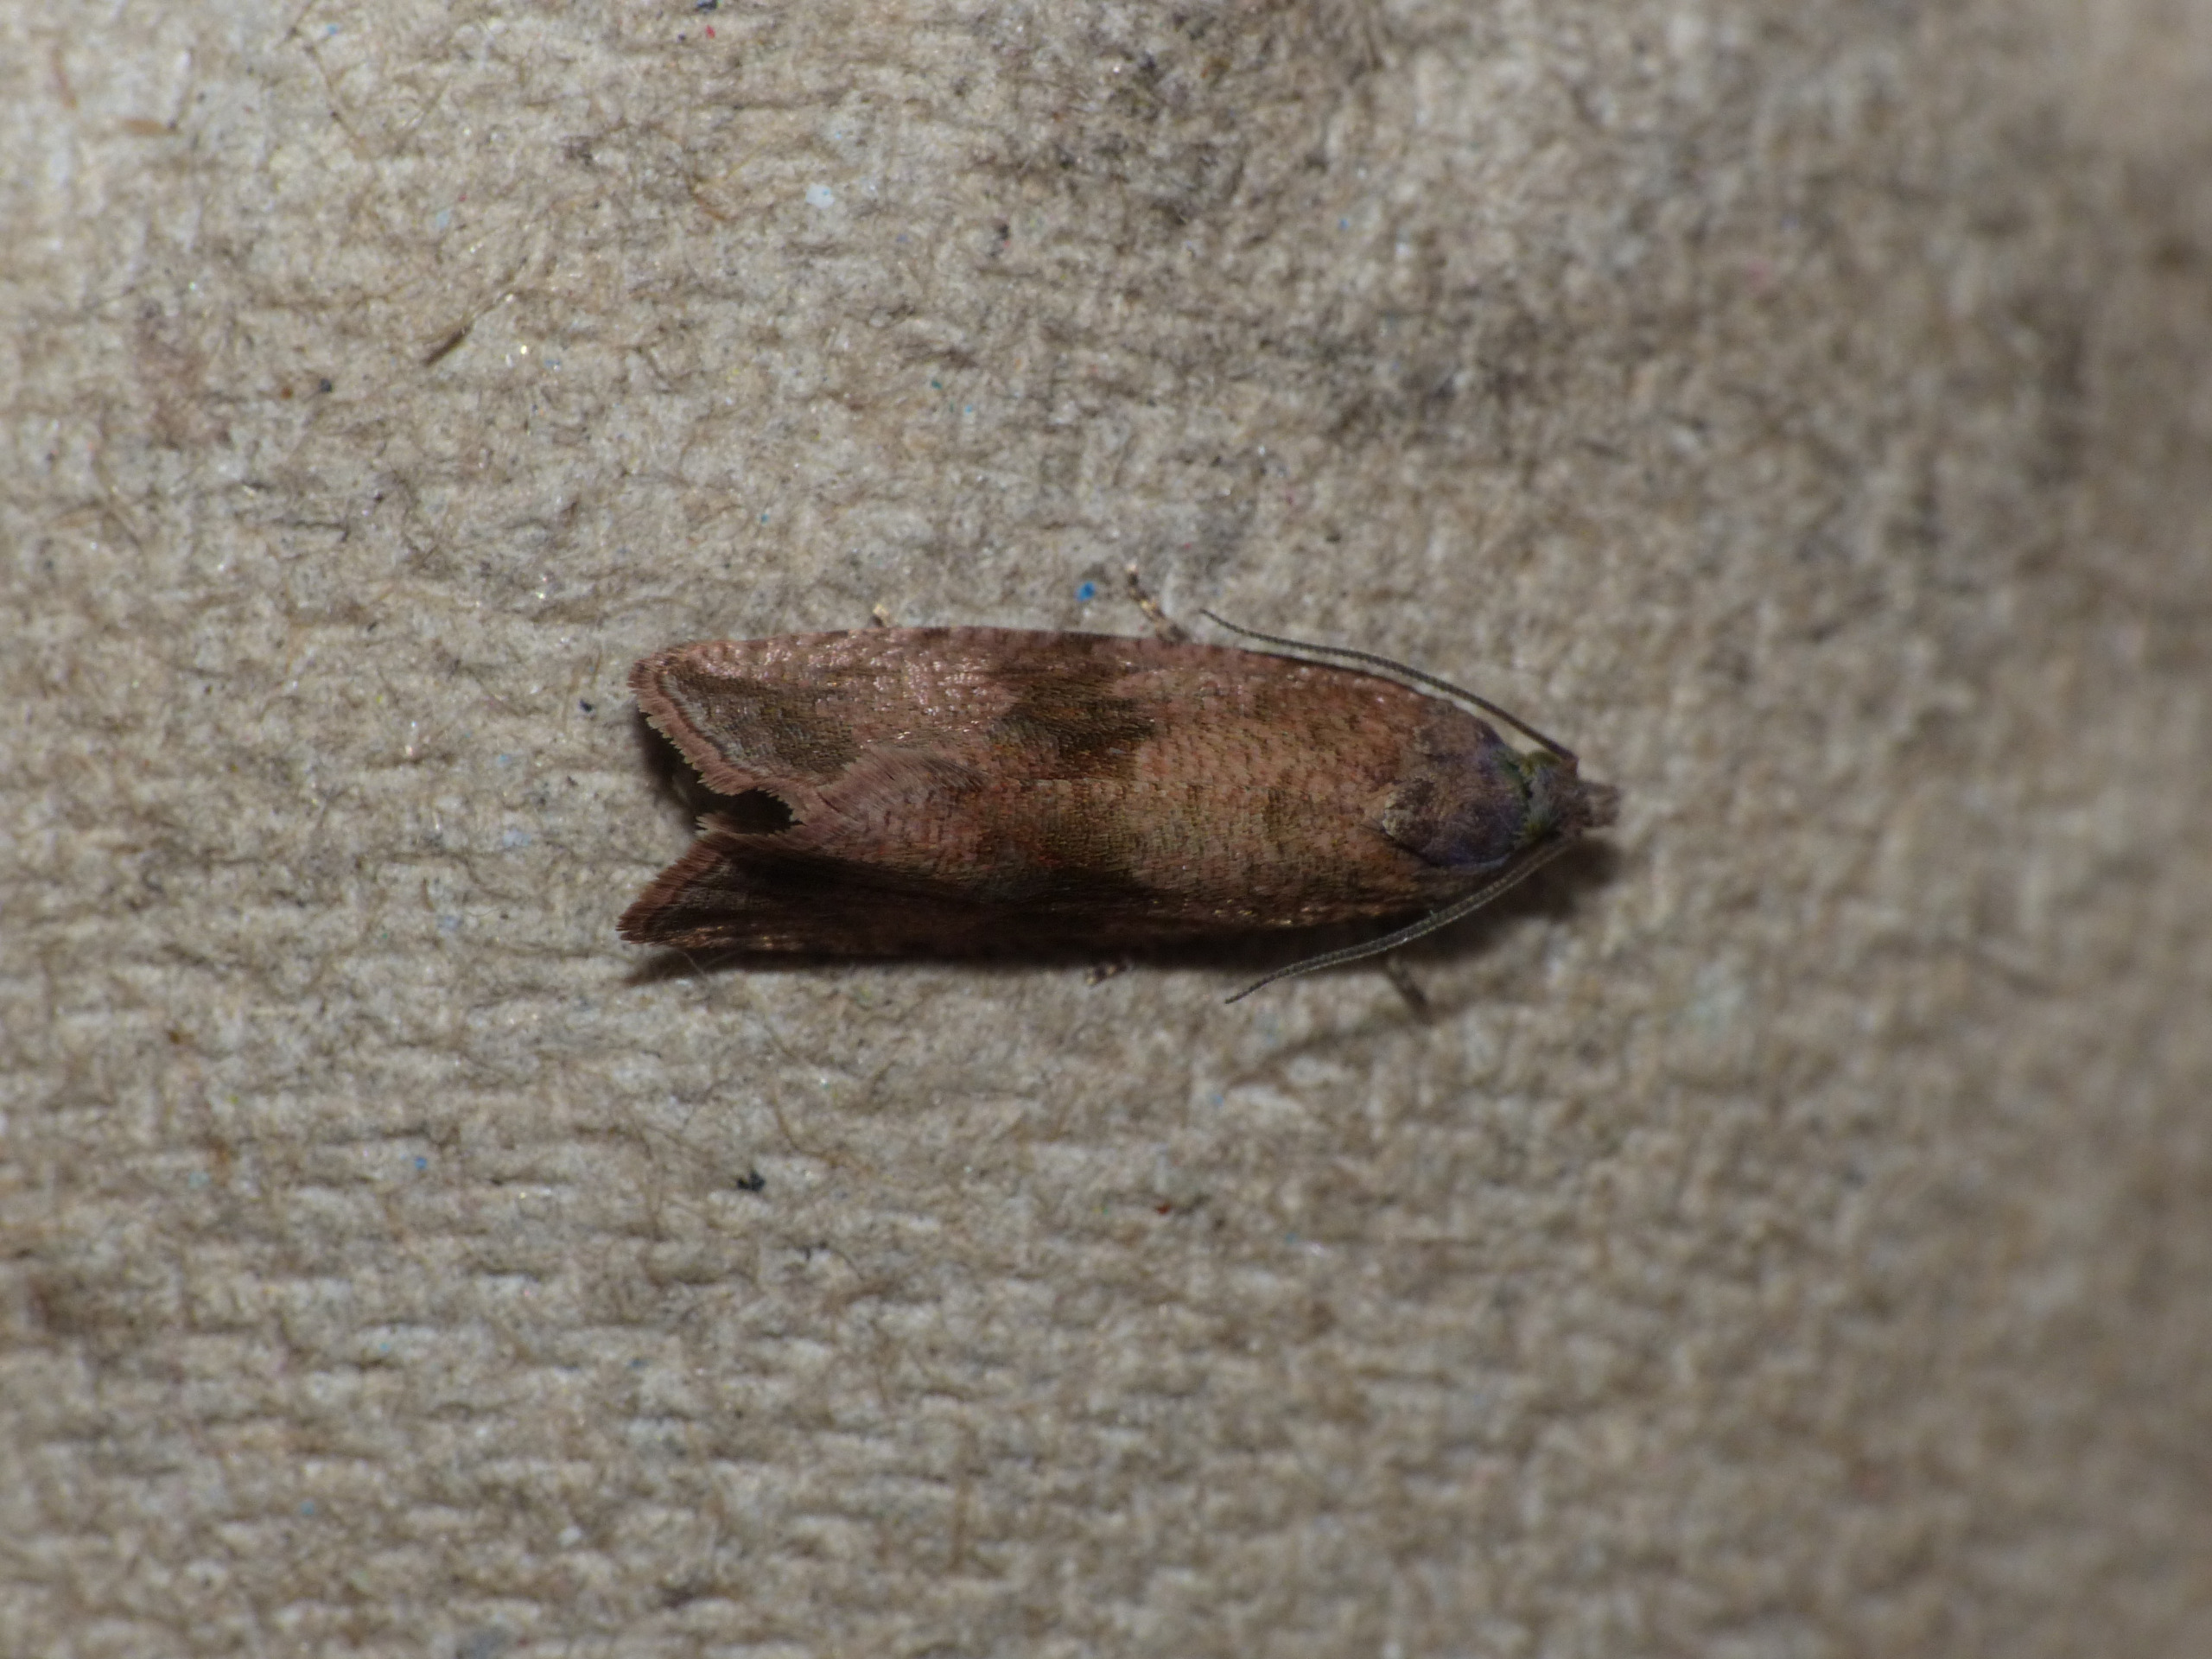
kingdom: Animalia
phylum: Arthropoda
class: Insecta
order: Lepidoptera
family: Tortricidae
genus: Celypha
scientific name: Celypha striana
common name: Mælkebøttevikler
